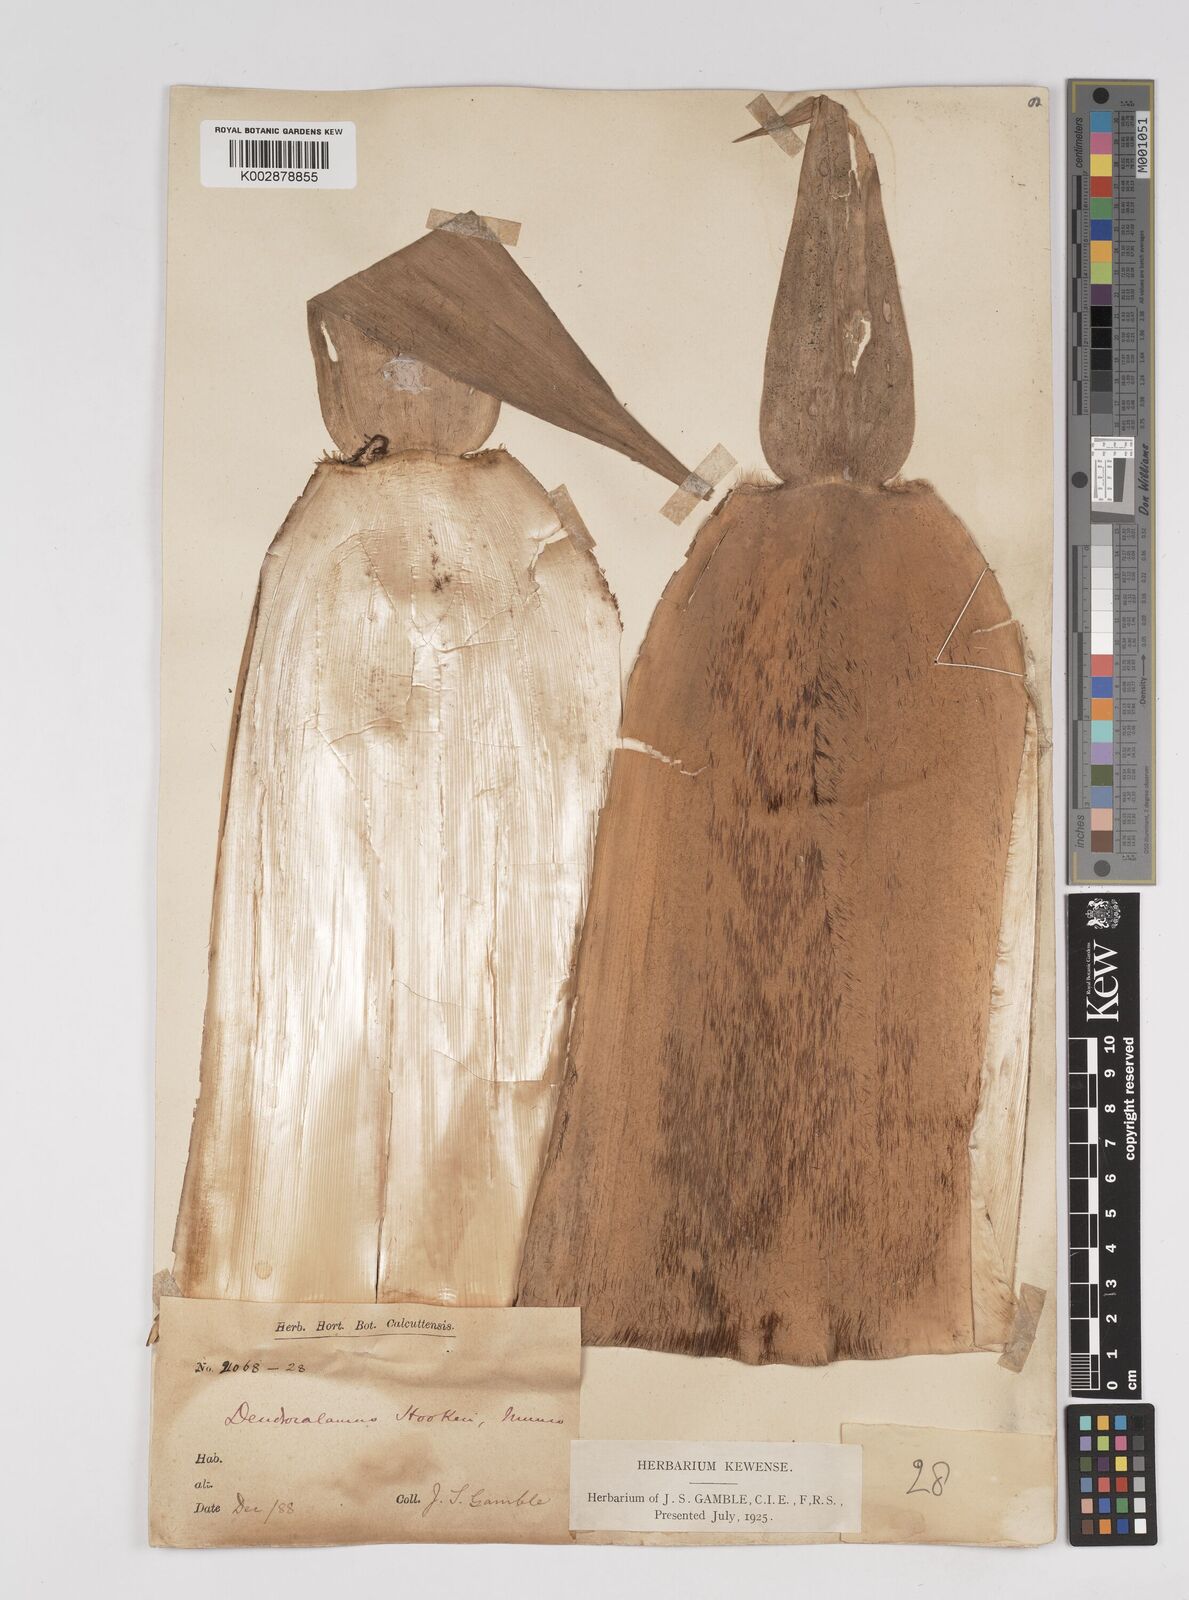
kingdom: Plantae
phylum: Tracheophyta
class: Liliopsida
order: Poales
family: Poaceae
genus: Dendrocalamus
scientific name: Dendrocalamus hookeri
